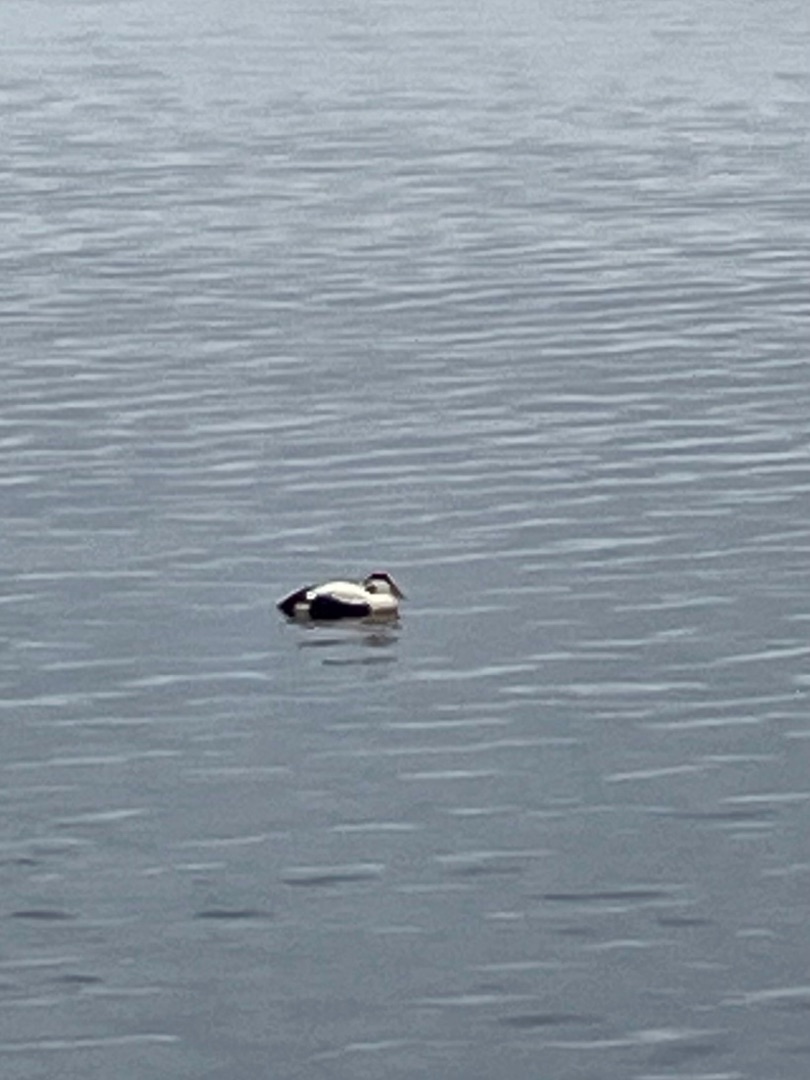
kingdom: Animalia
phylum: Chordata
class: Aves
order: Anseriformes
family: Anatidae
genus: Somateria
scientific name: Somateria mollissima
